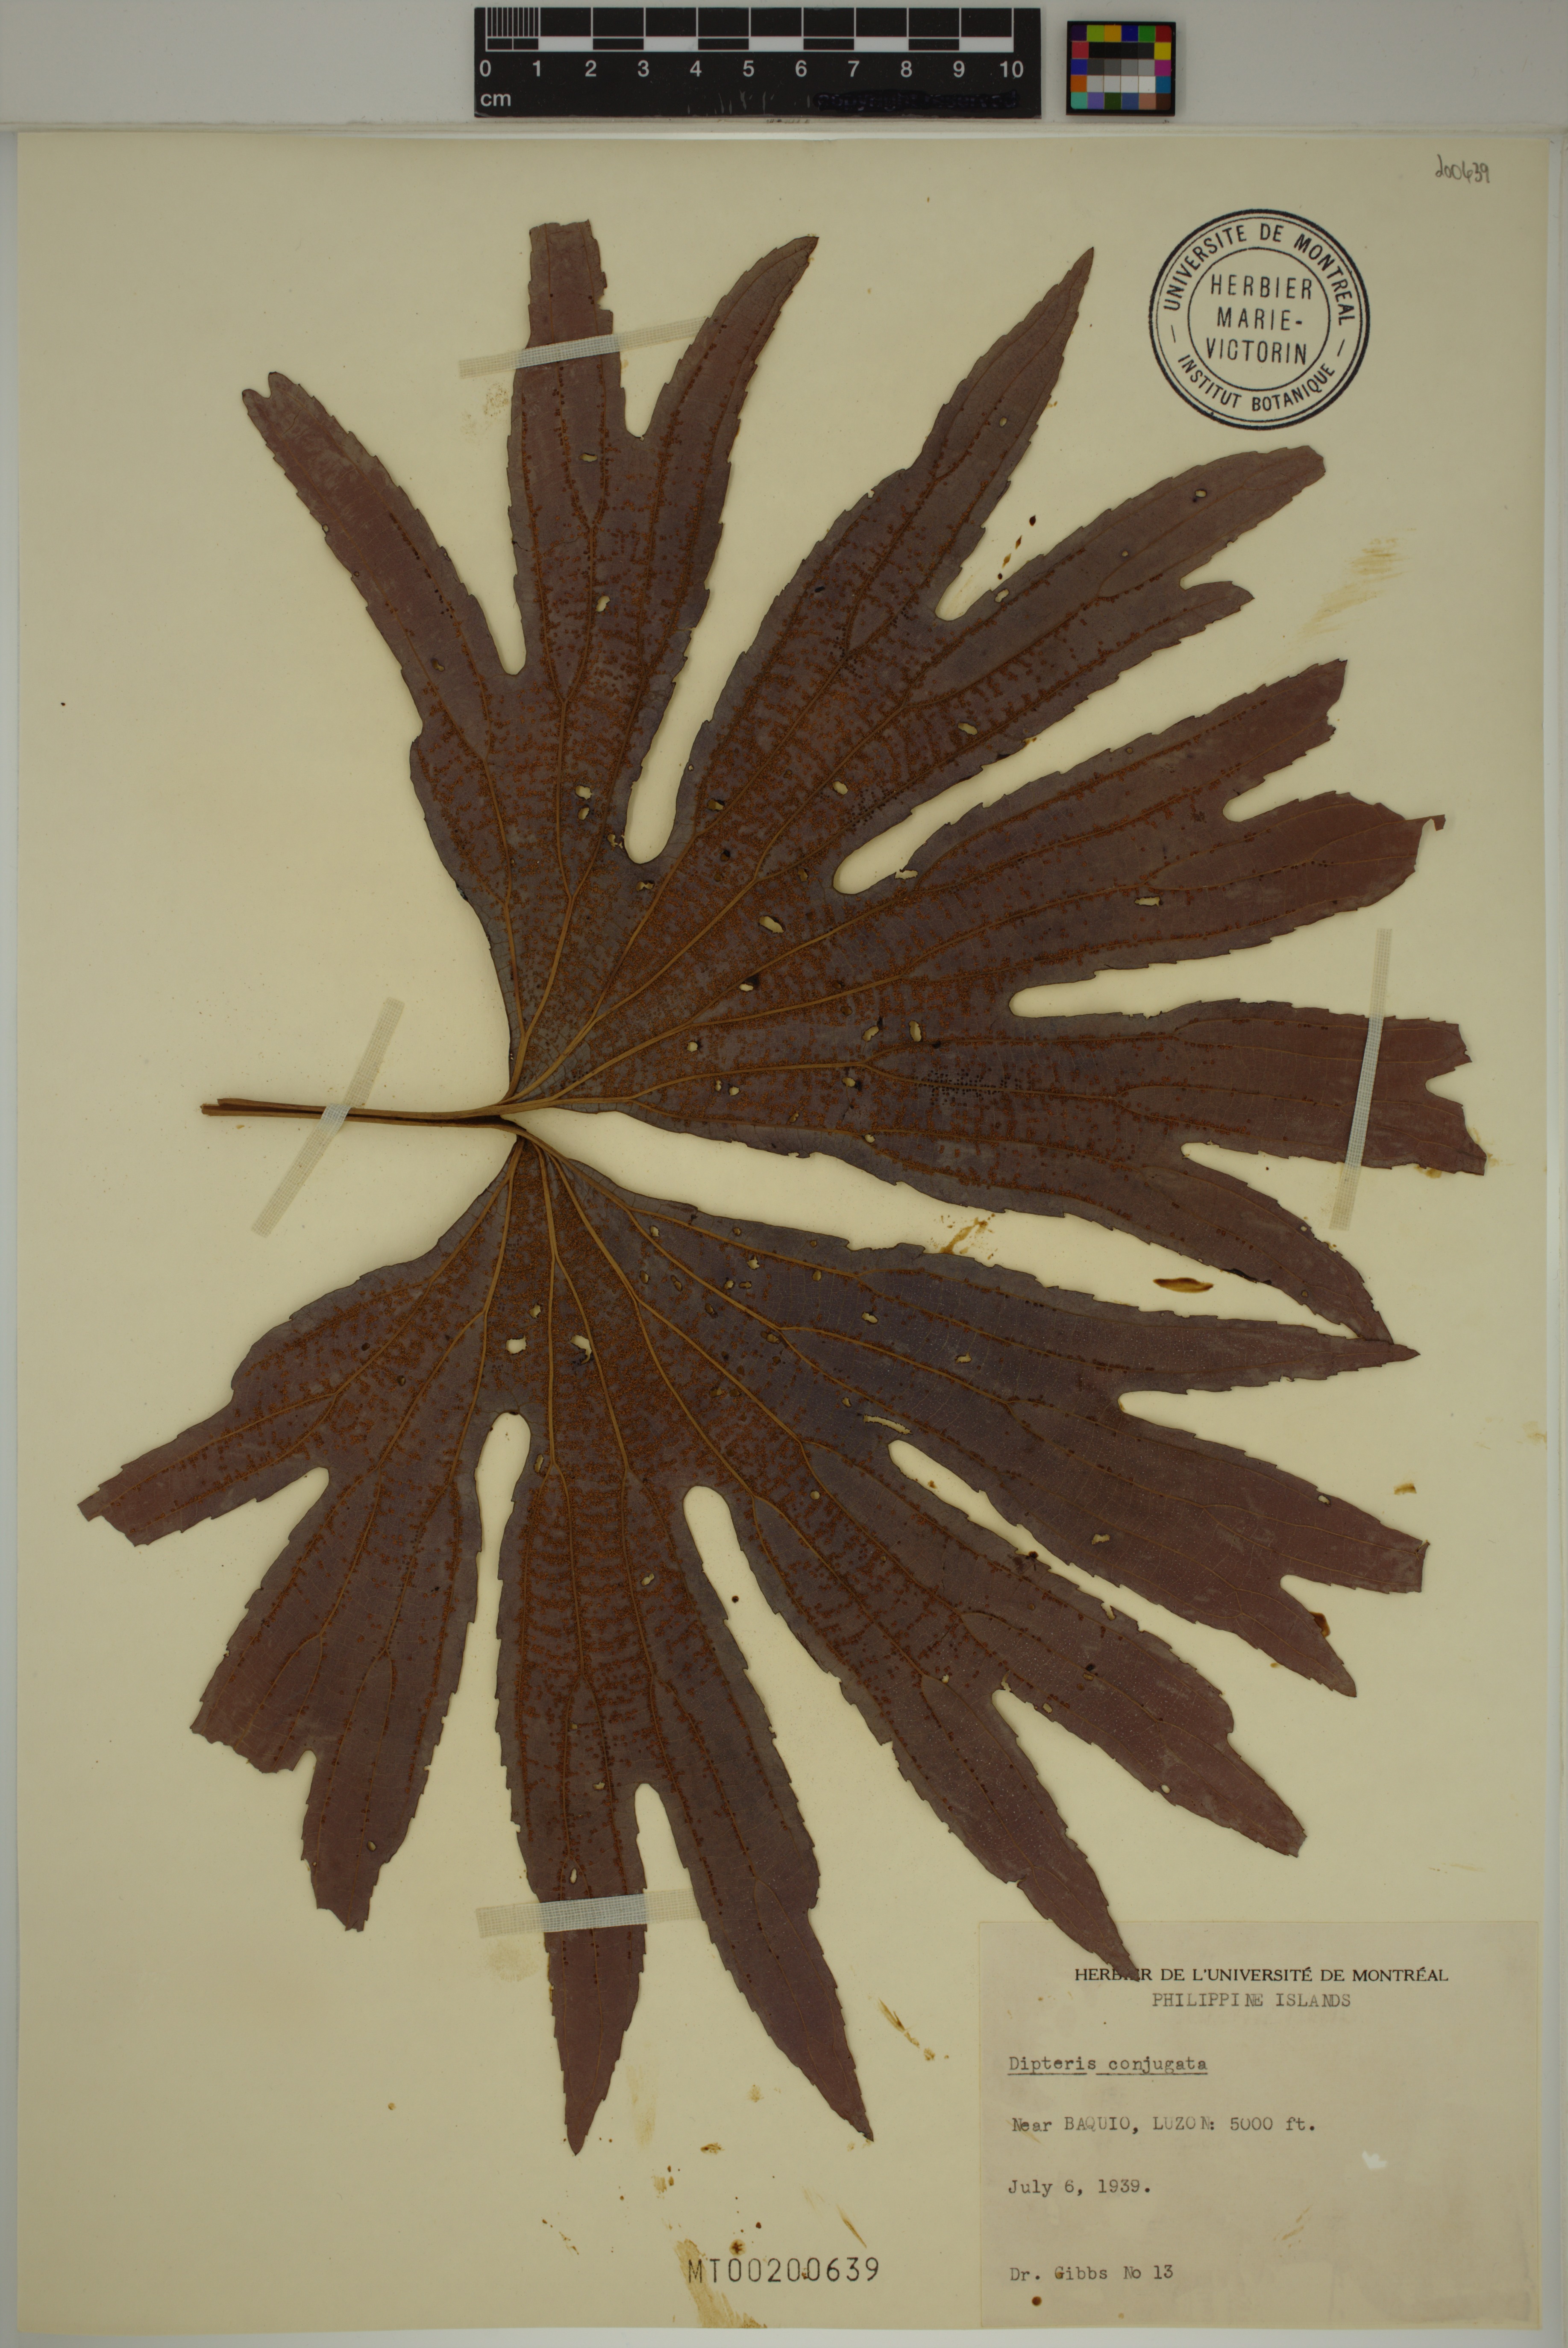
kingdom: Plantae
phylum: Tracheophyta
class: Polypodiopsida
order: Gleicheniales
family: Dipteridaceae
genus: Dipteris
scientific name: Dipteris conjugata
